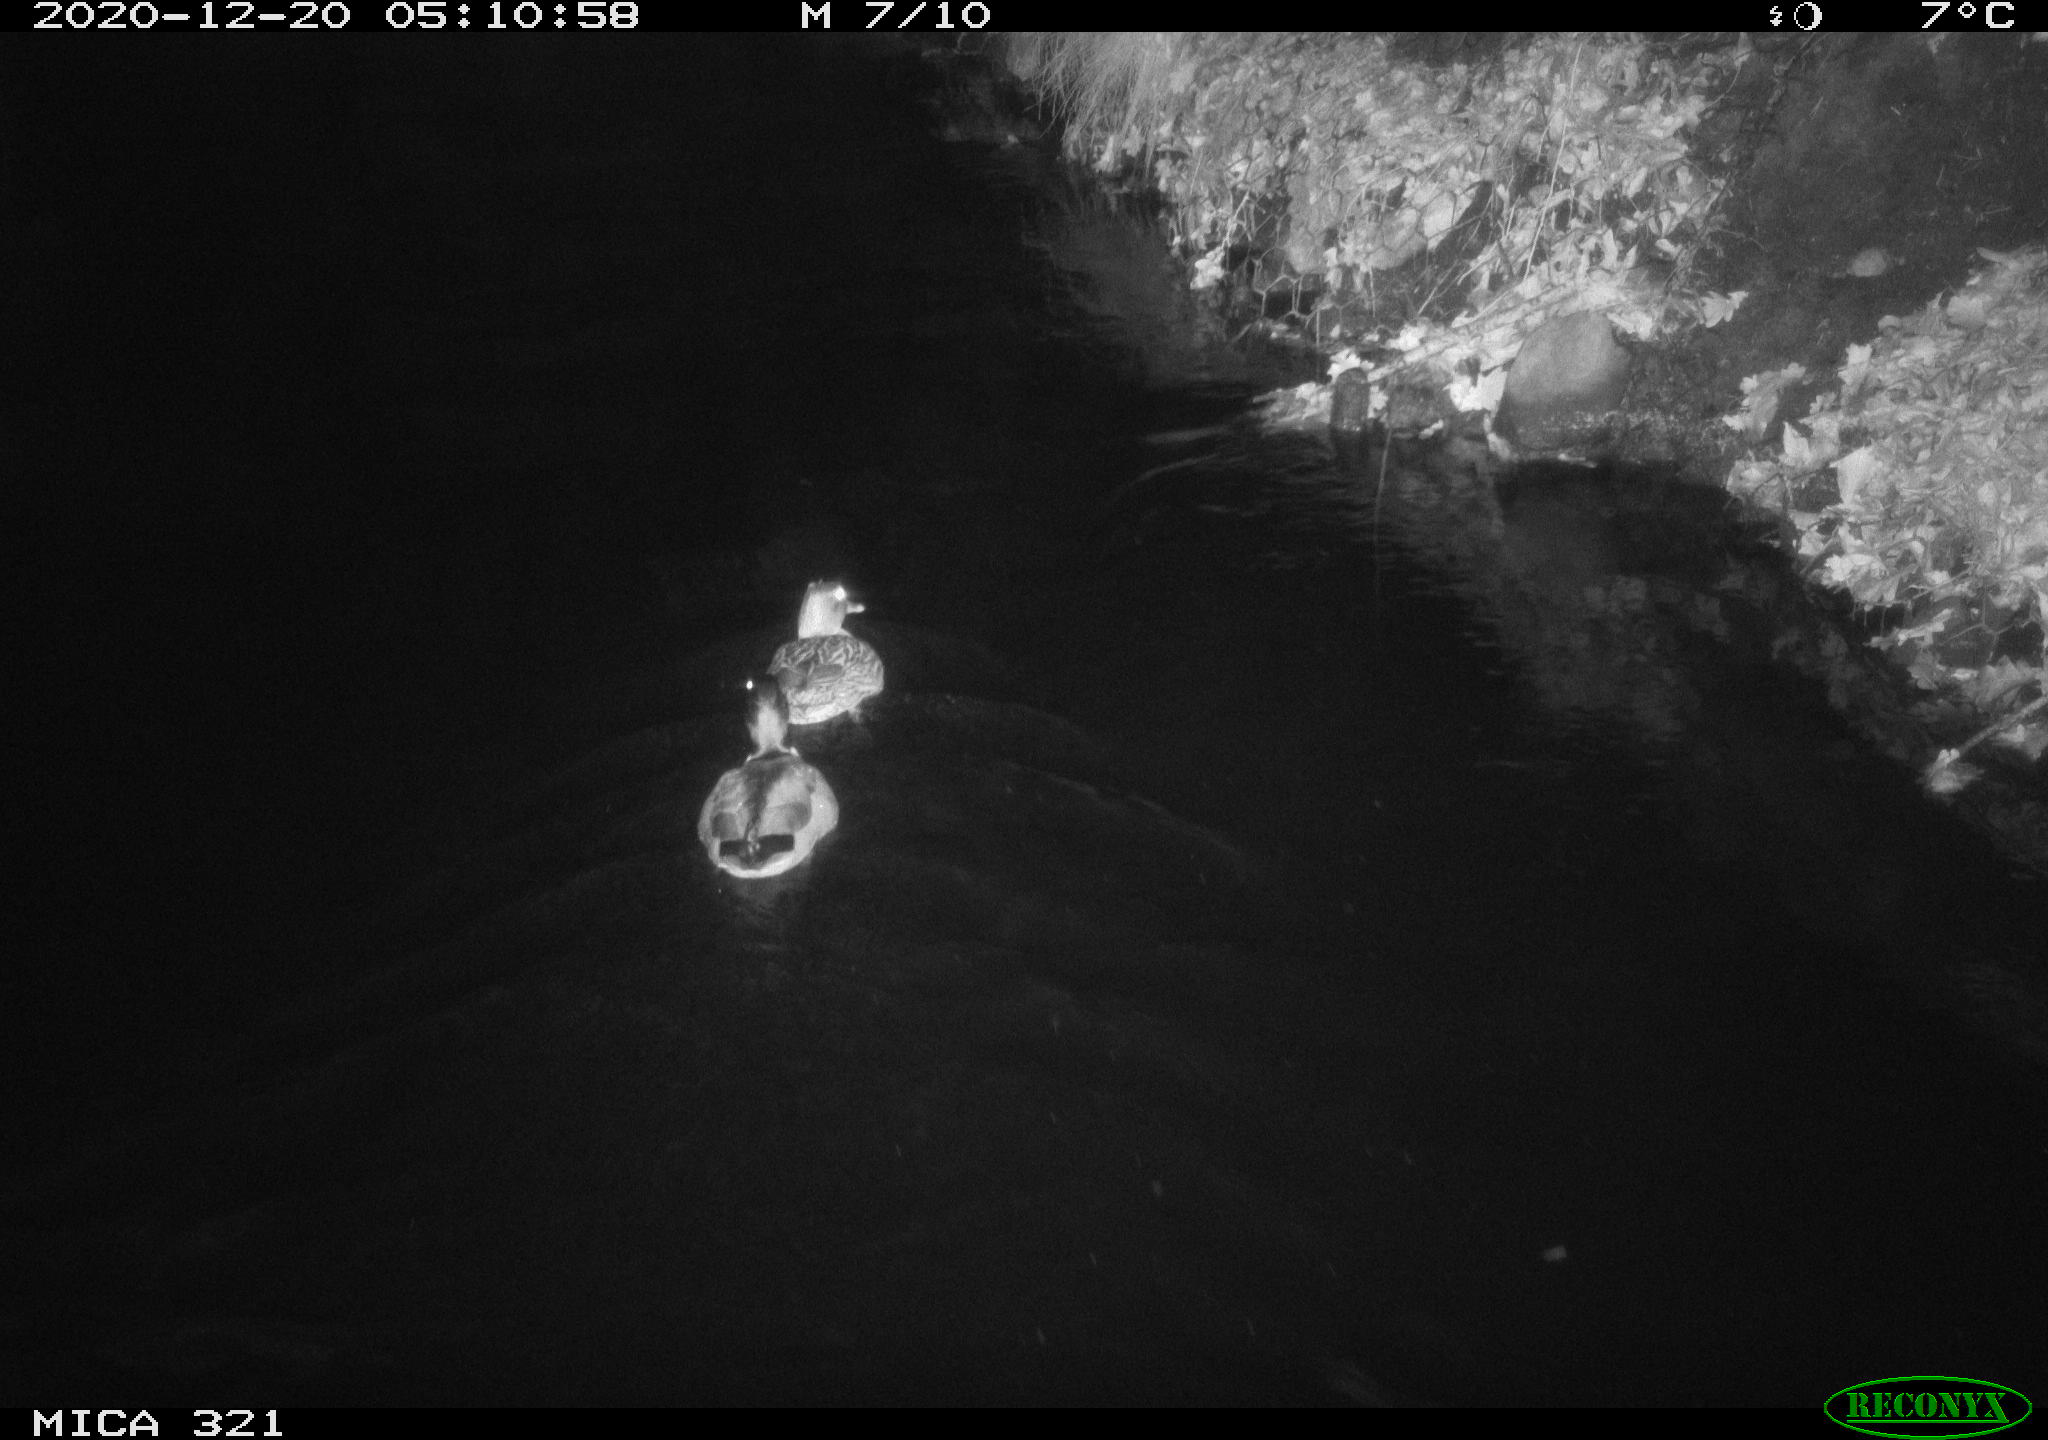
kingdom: Animalia
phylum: Chordata
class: Aves
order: Anseriformes
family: Anatidae
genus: Anas
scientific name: Anas platyrhynchos
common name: Mallard
